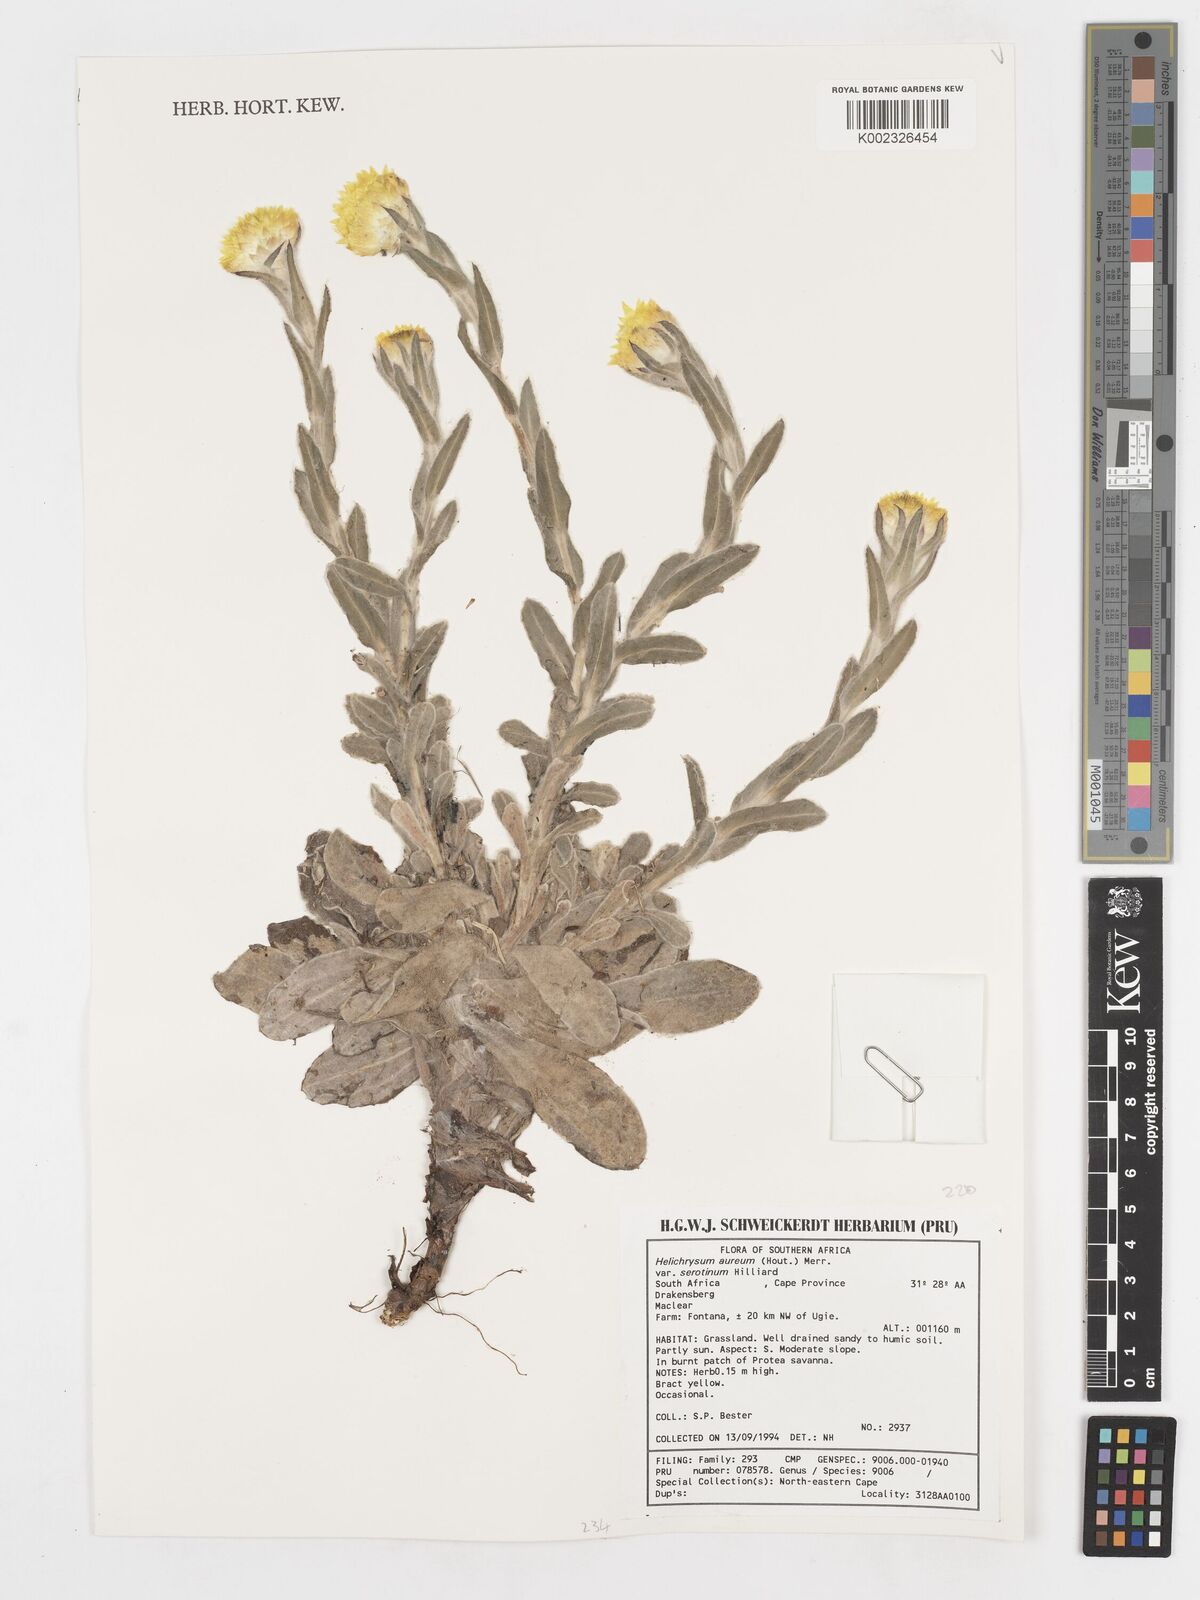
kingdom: Plantae
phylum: Tracheophyta
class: Magnoliopsida
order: Asterales
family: Asteraceae
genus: Helichrysum
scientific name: Helichrysum aureum
